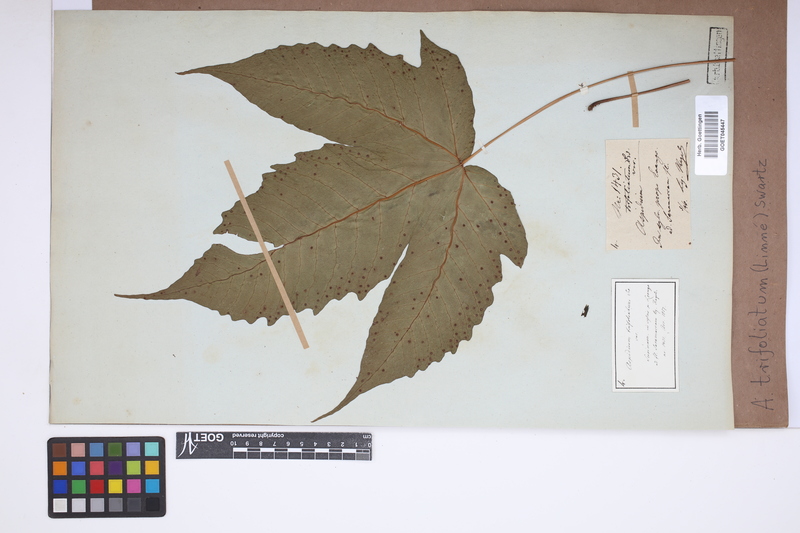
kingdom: Plantae
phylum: Tracheophyta
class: Polypodiopsida
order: Polypodiales
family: Tectariaceae
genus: Tectaria
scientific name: Tectaria trifoliata
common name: Threeleaf halberd fern
